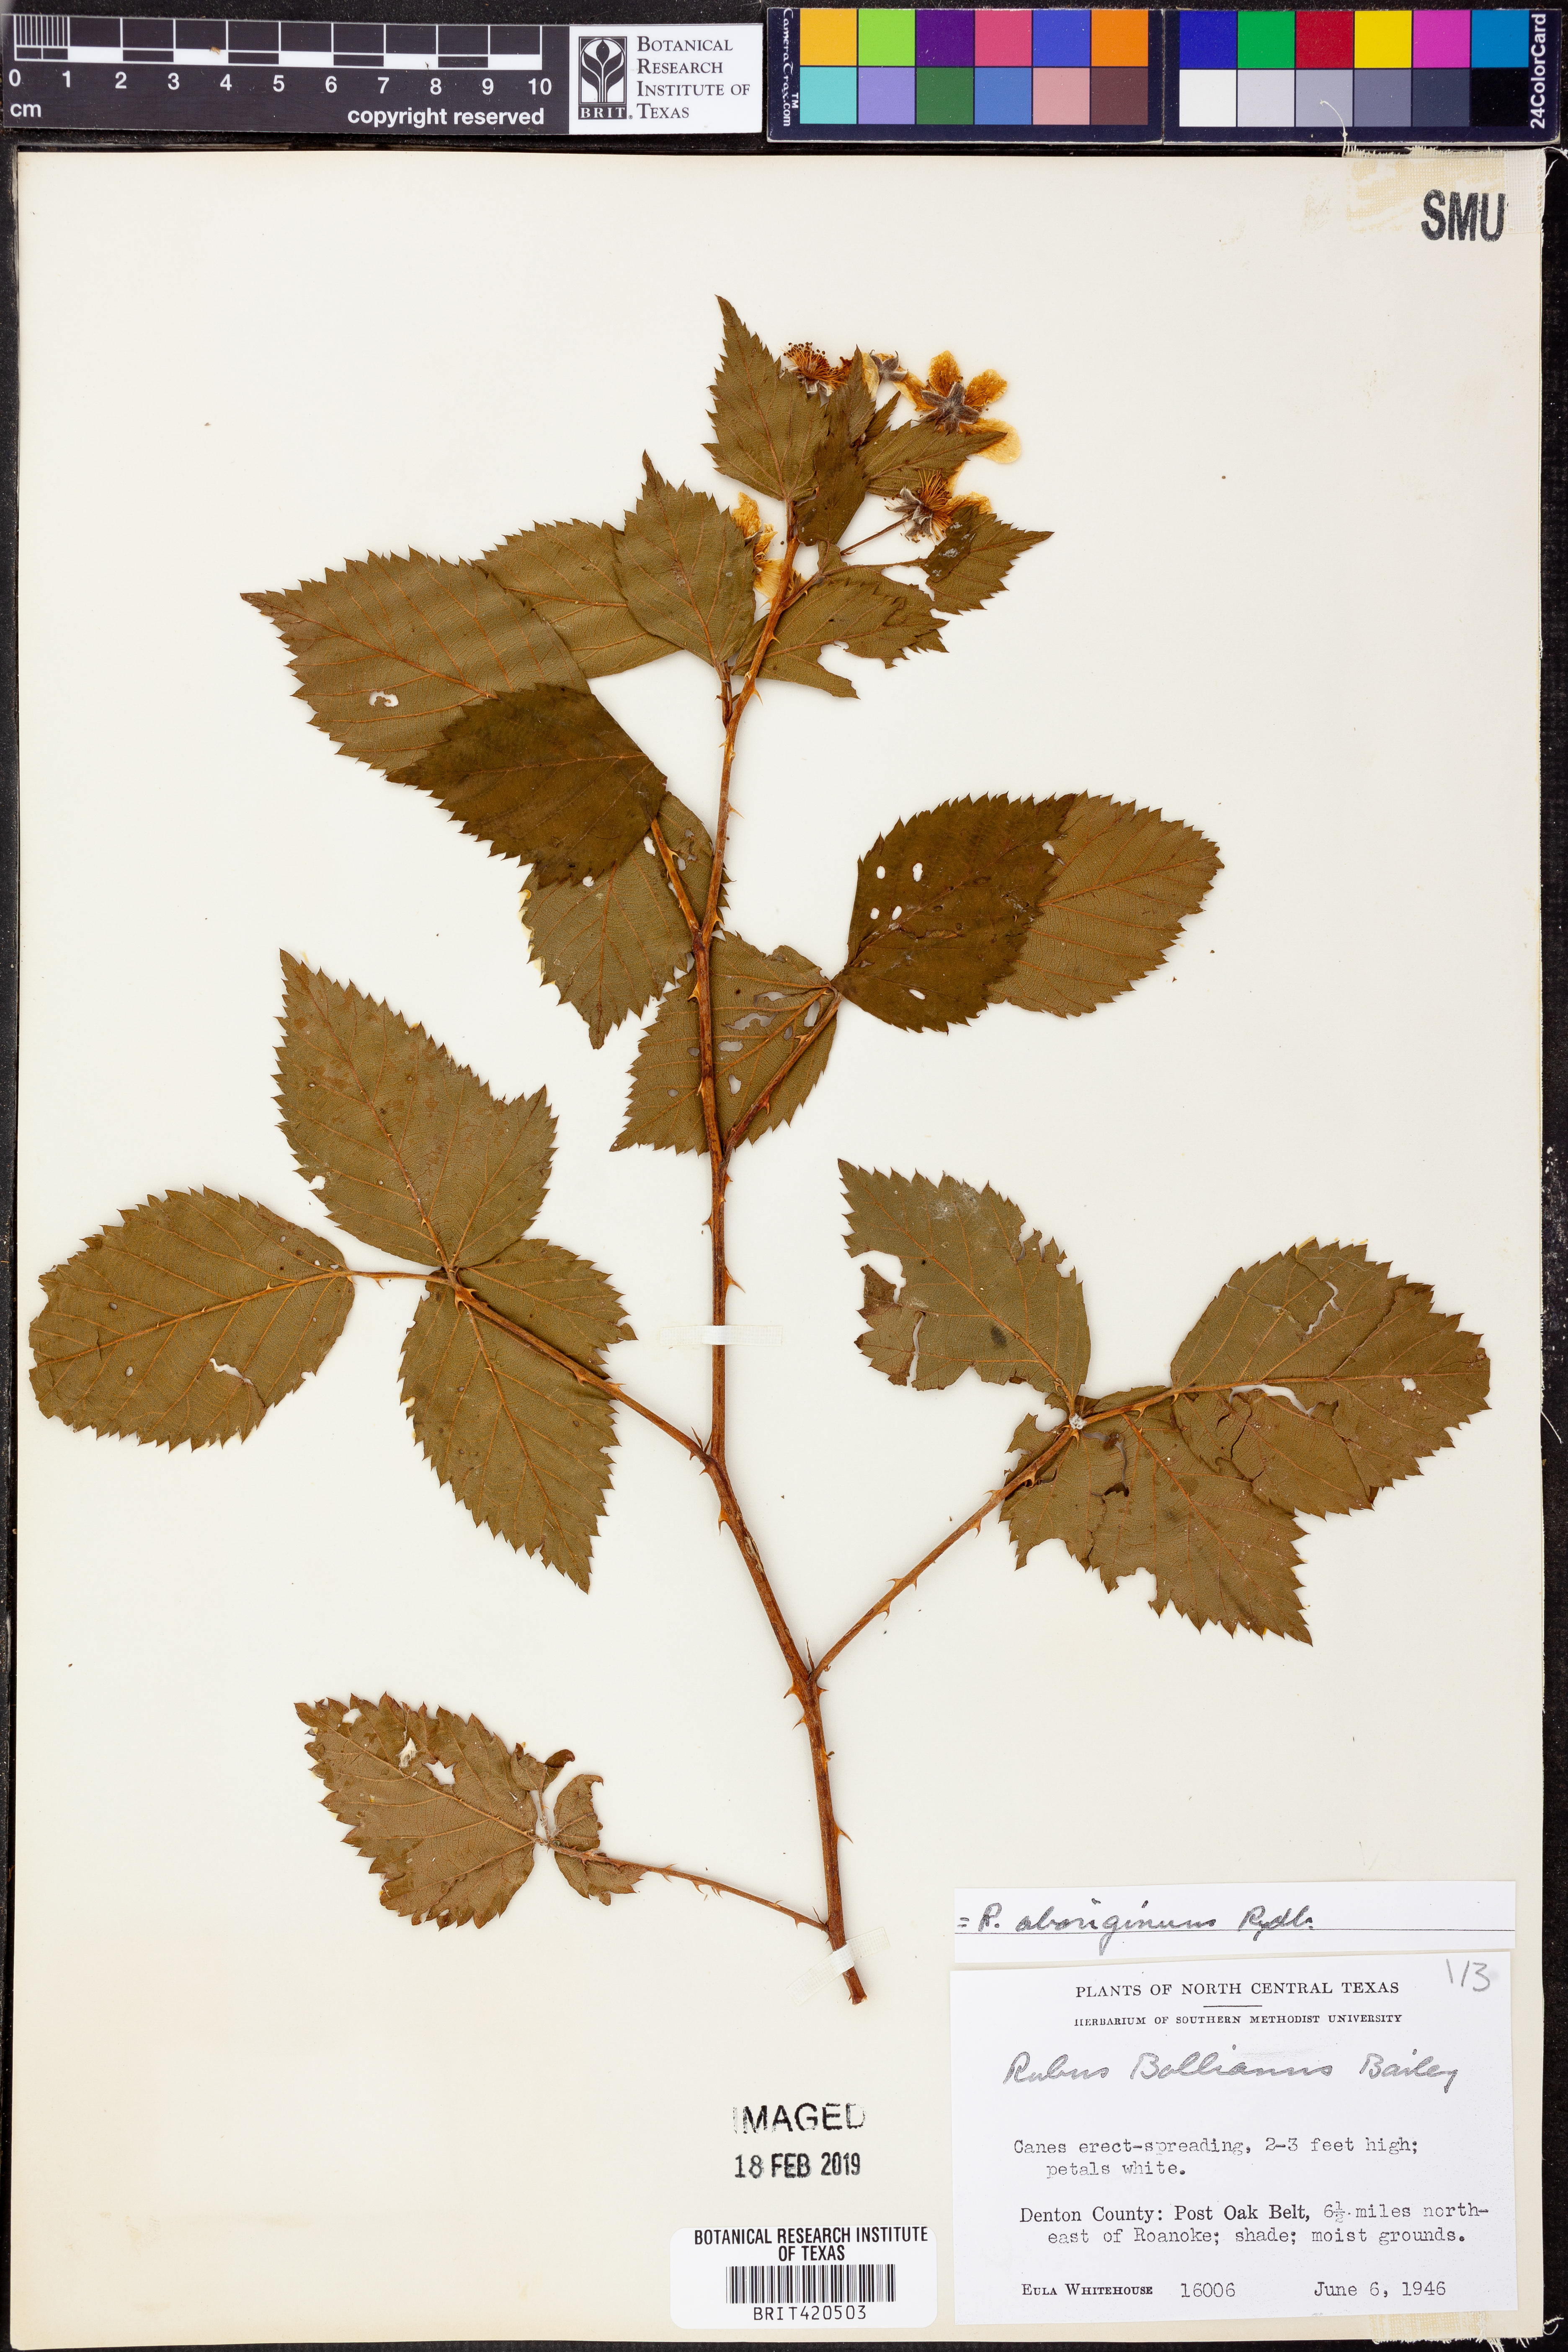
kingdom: Plantae
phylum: Tracheophyta
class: Magnoliopsida
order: Rosales
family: Rosaceae
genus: Rubus
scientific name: Rubus aboriginum
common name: Mayes dewberry
